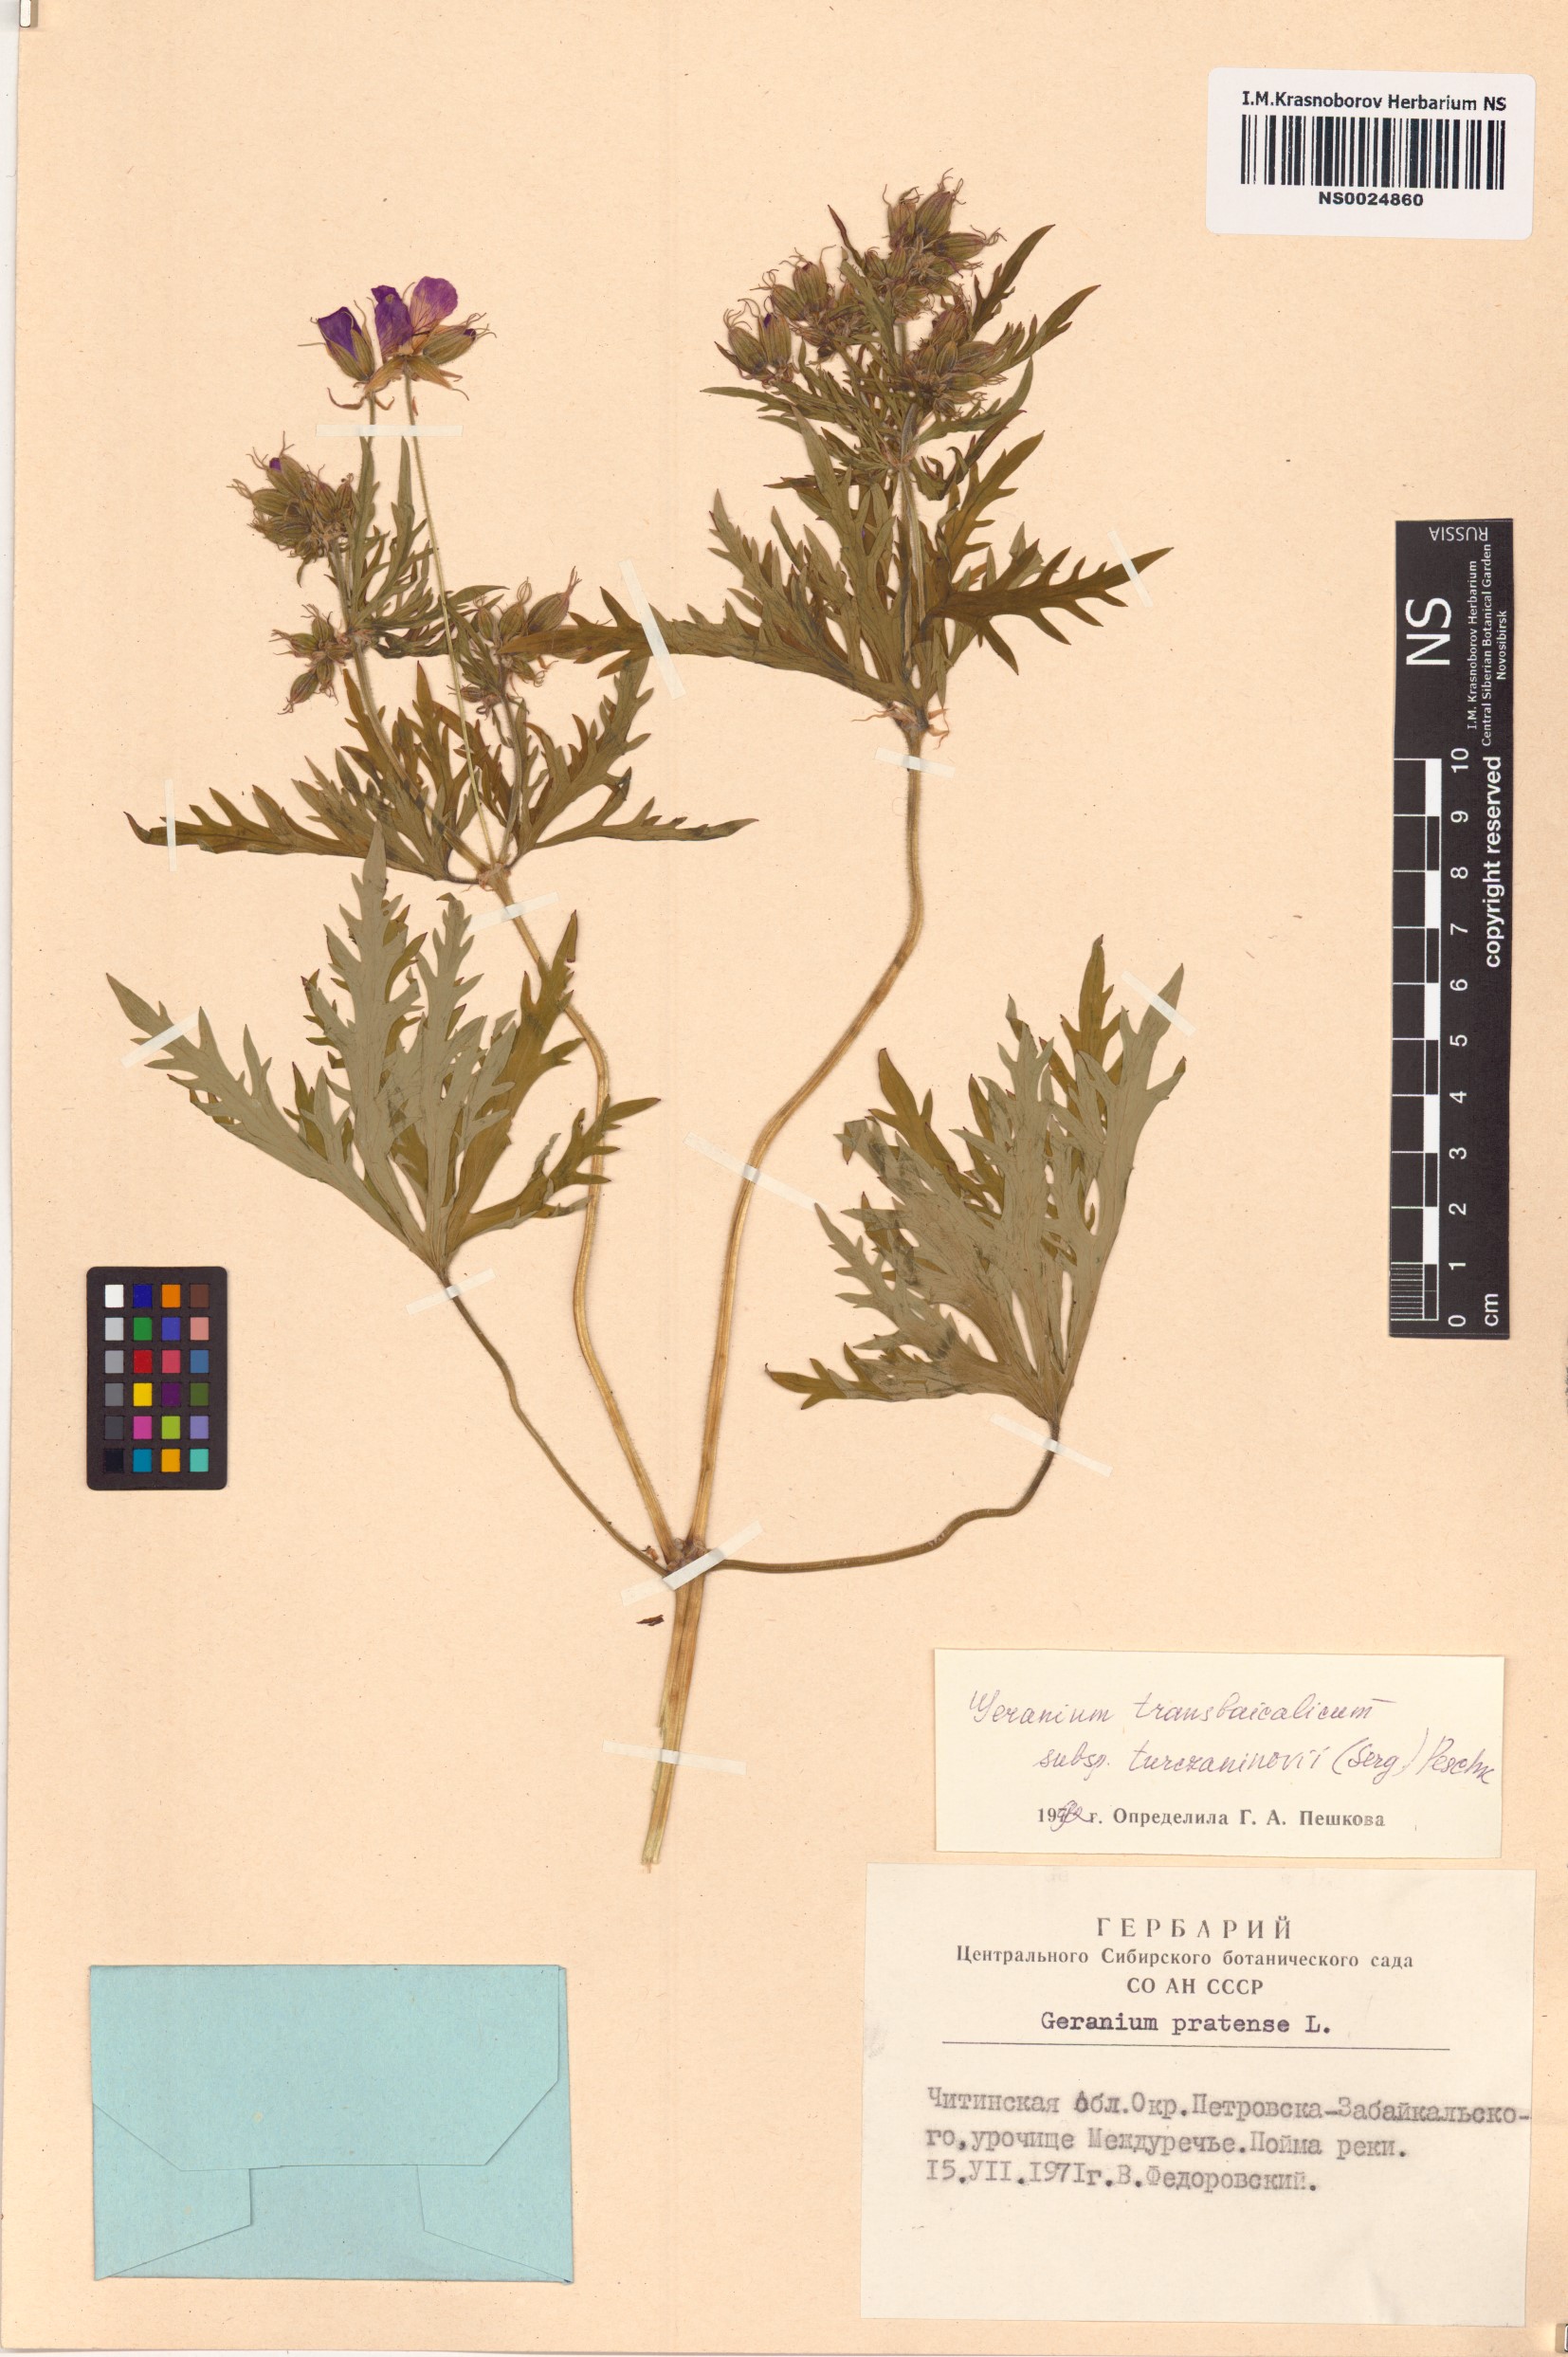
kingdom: Plantae
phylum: Tracheophyta
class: Magnoliopsida
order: Geraniales
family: Geraniaceae
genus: Geranium
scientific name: Geranium pratense
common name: Meadow crane's-bill
